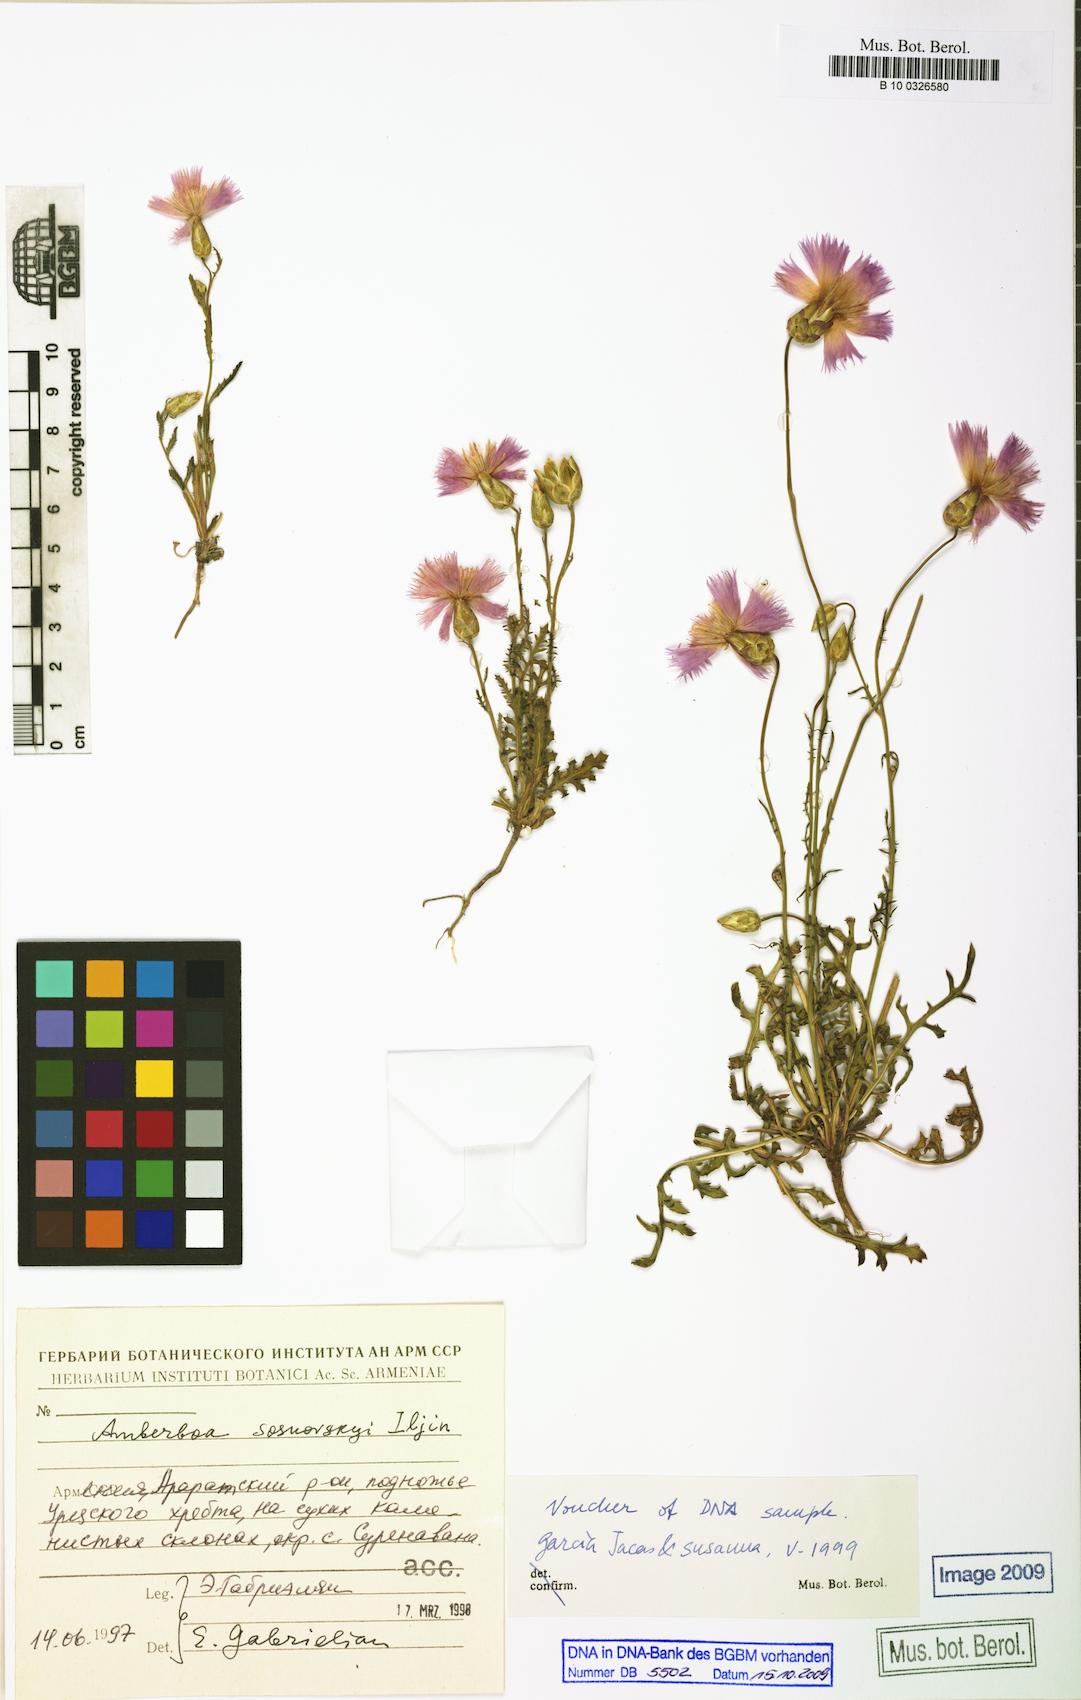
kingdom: Plantae
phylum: Tracheophyta
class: Magnoliopsida
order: Asterales
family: Asteraceae
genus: Amberboa
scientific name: Amberboa sosnovskyi
